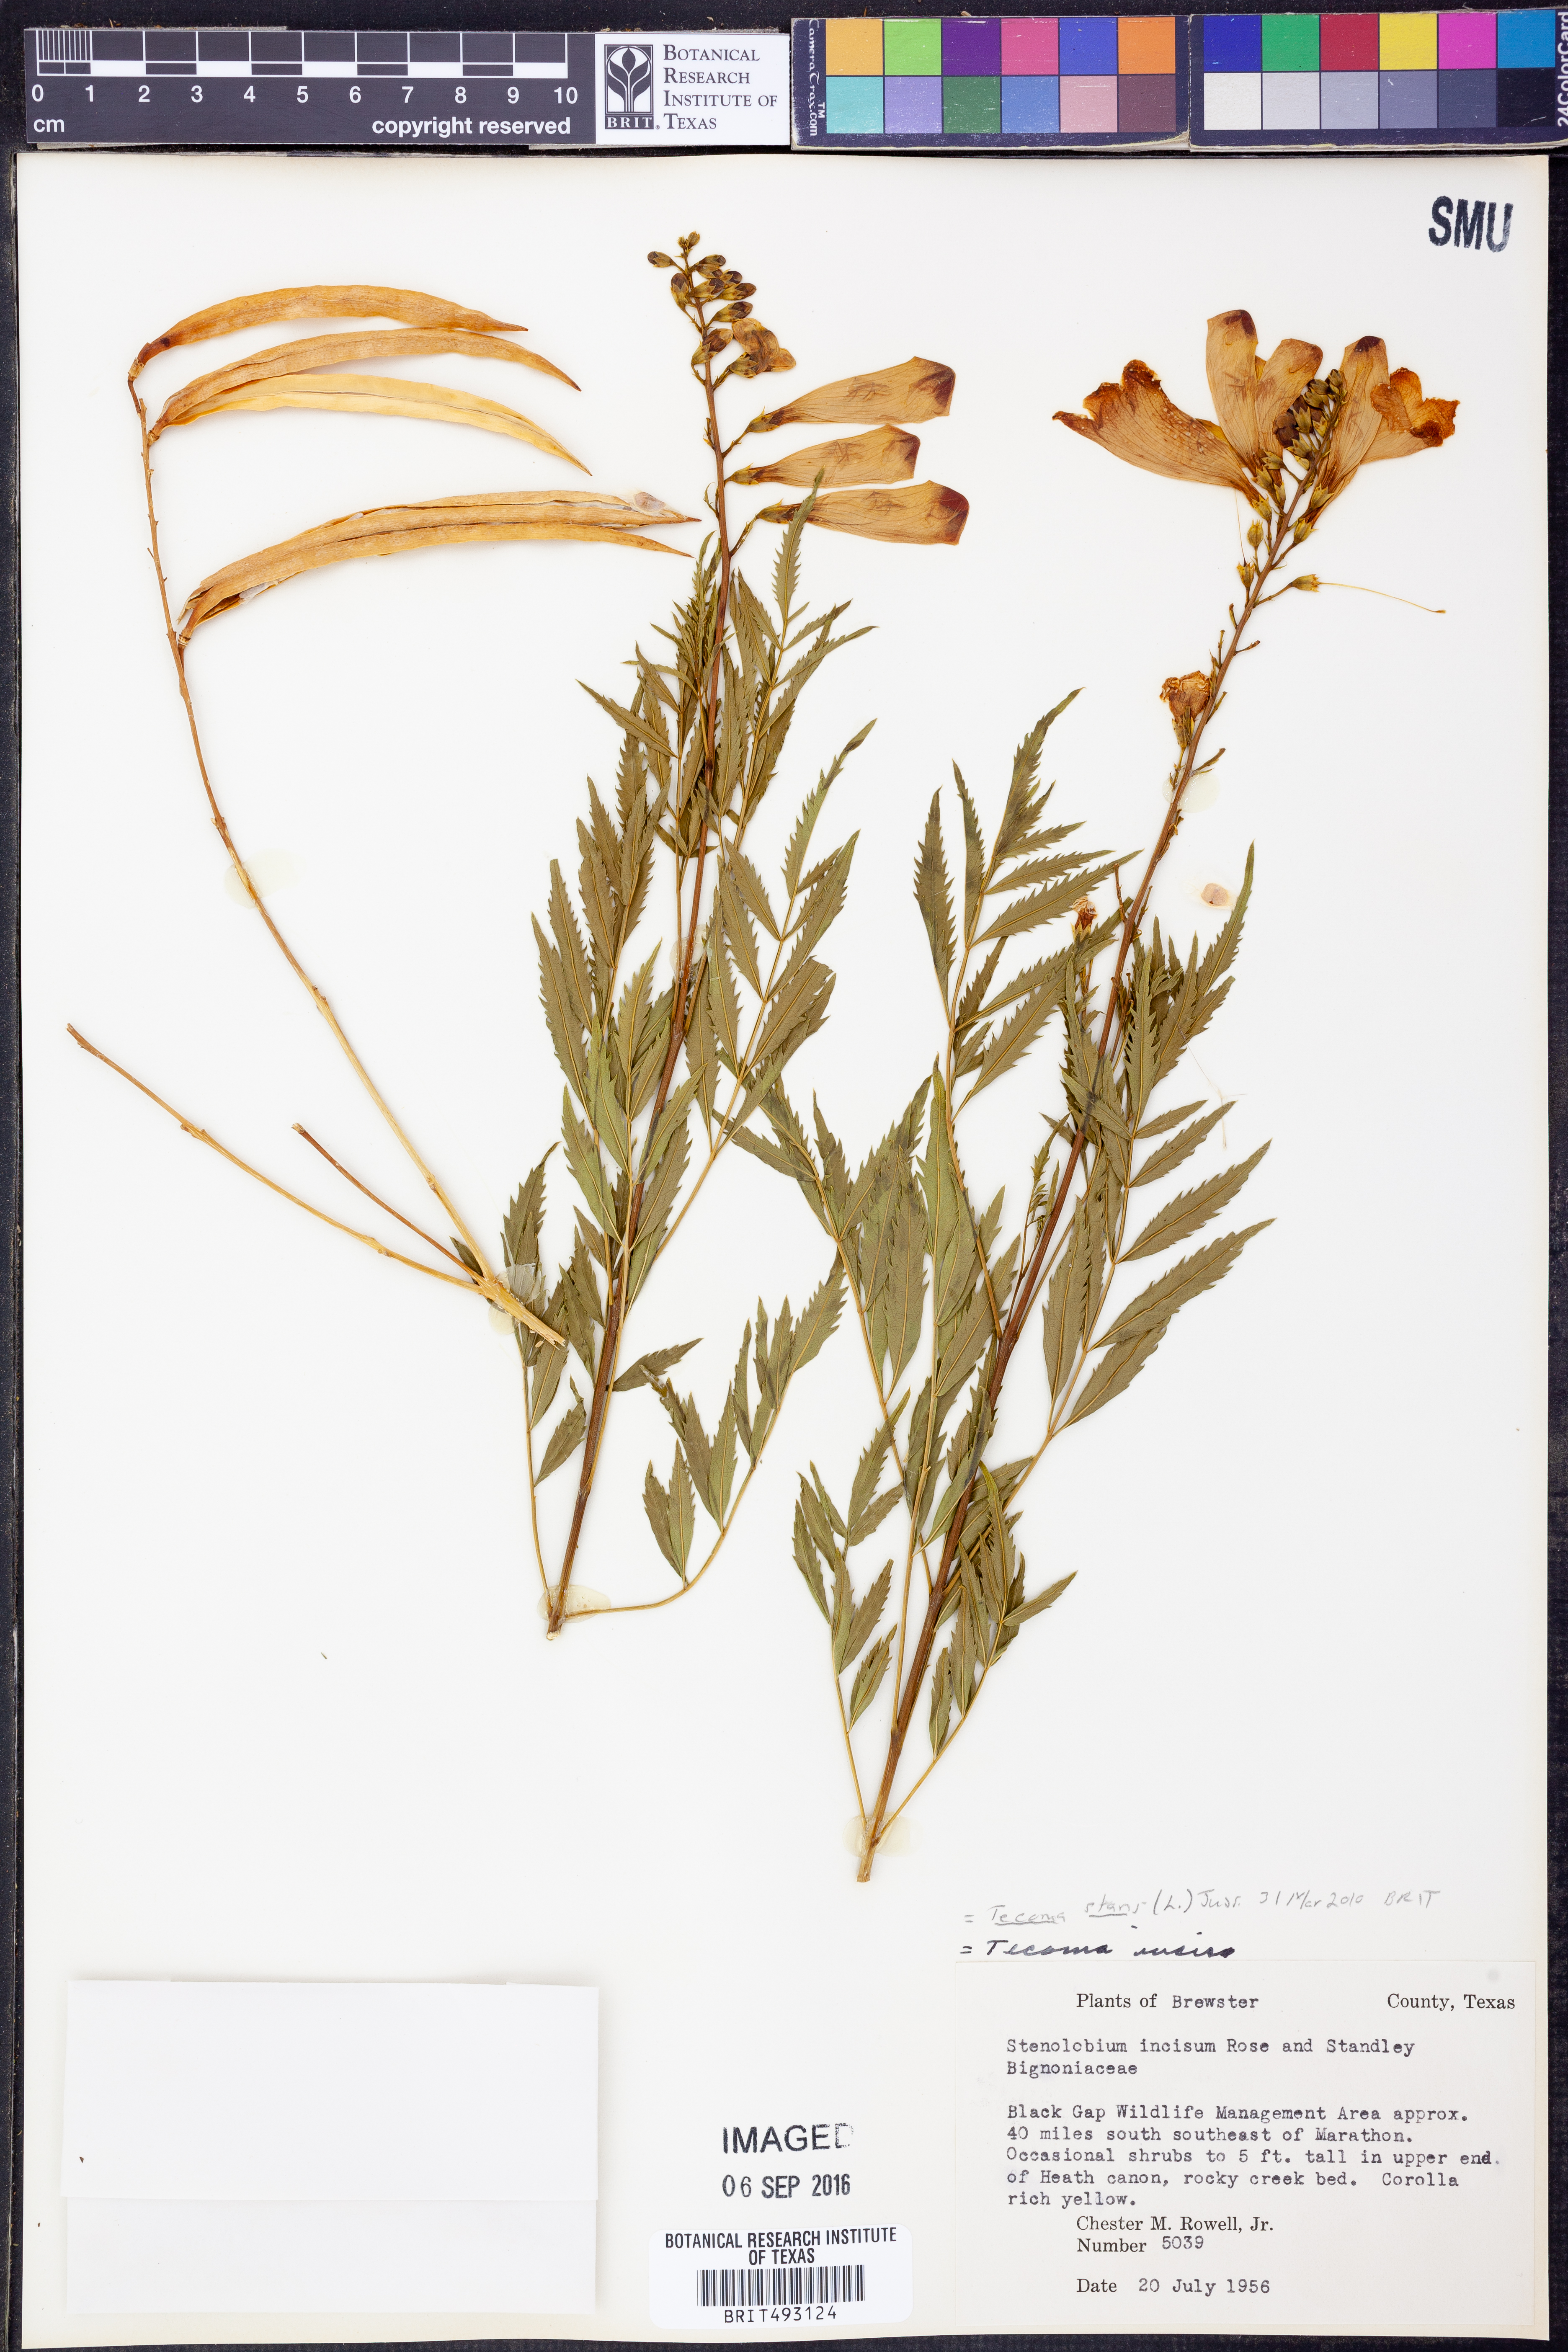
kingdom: Plantae
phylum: Tracheophyta
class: Magnoliopsida
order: Lamiales
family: Bignoniaceae
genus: Tecoma
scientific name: Tecoma stans
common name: Yellow trumpetbush
